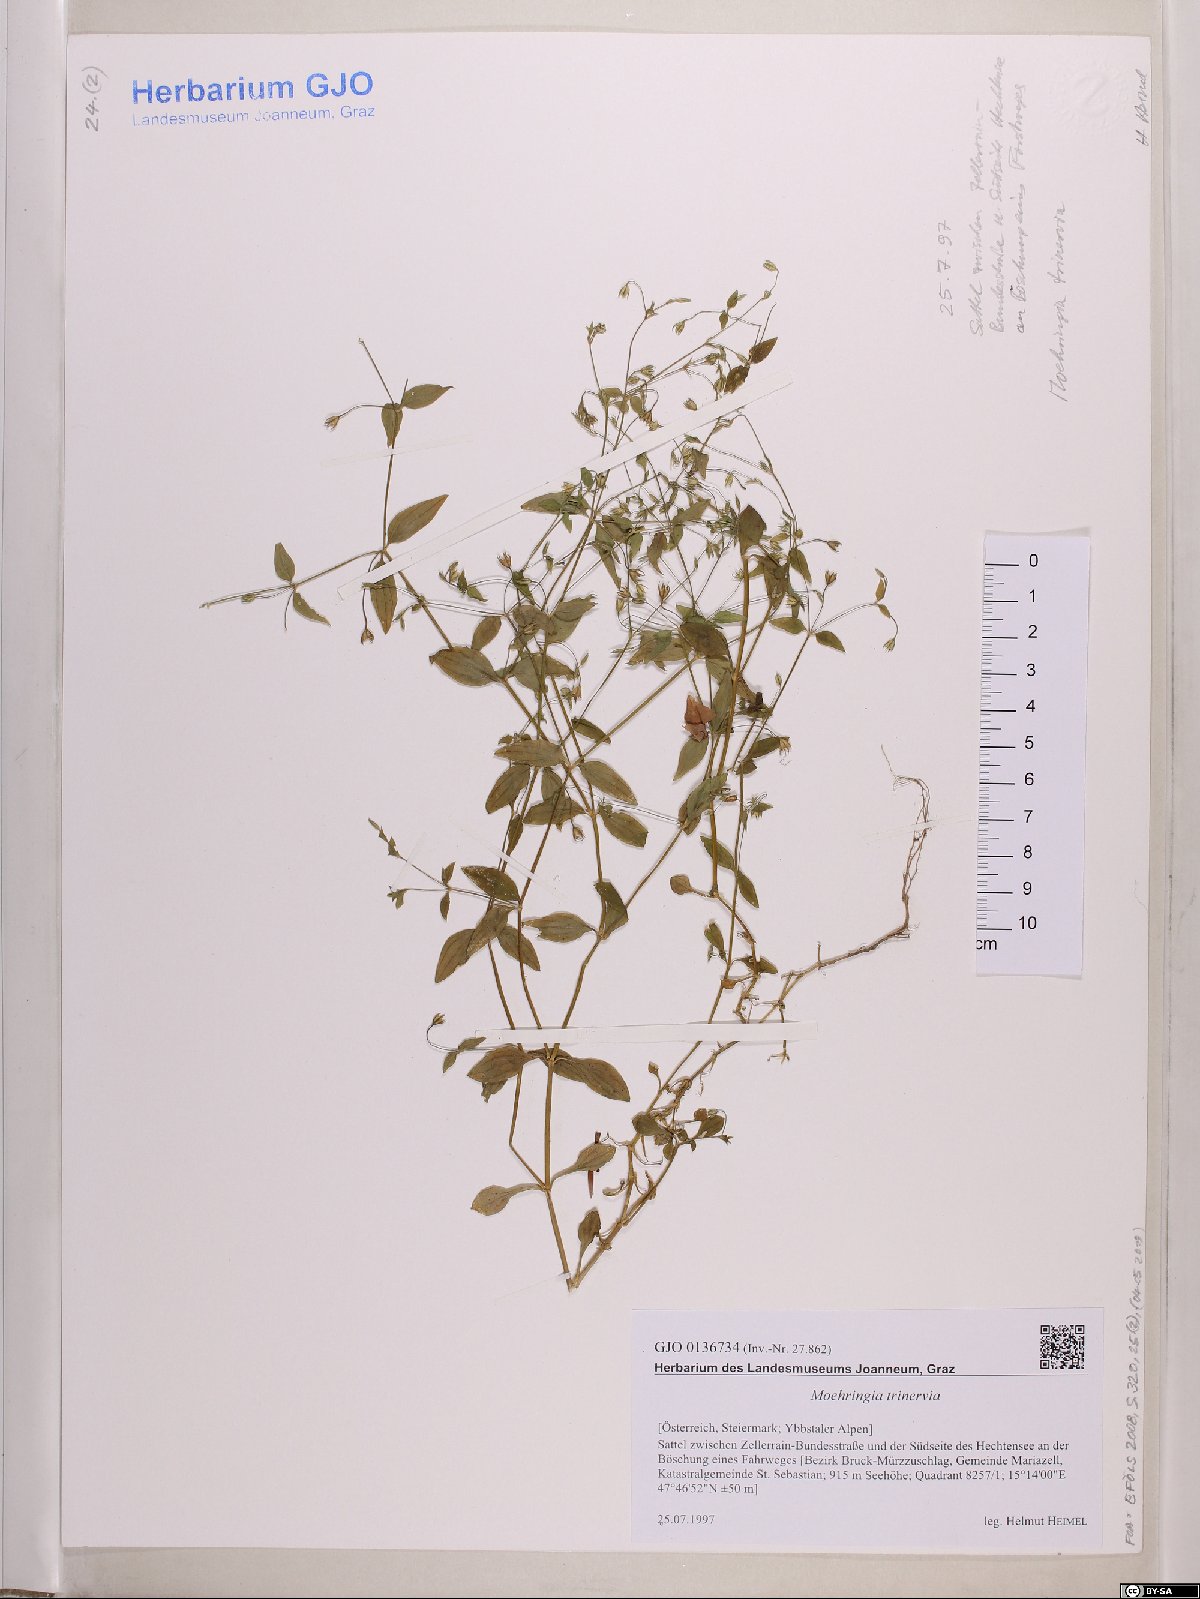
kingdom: Plantae
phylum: Tracheophyta
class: Magnoliopsida
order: Caryophyllales
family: Caryophyllaceae
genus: Moehringia
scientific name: Moehringia trinervia
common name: Three-nerved sandwort
